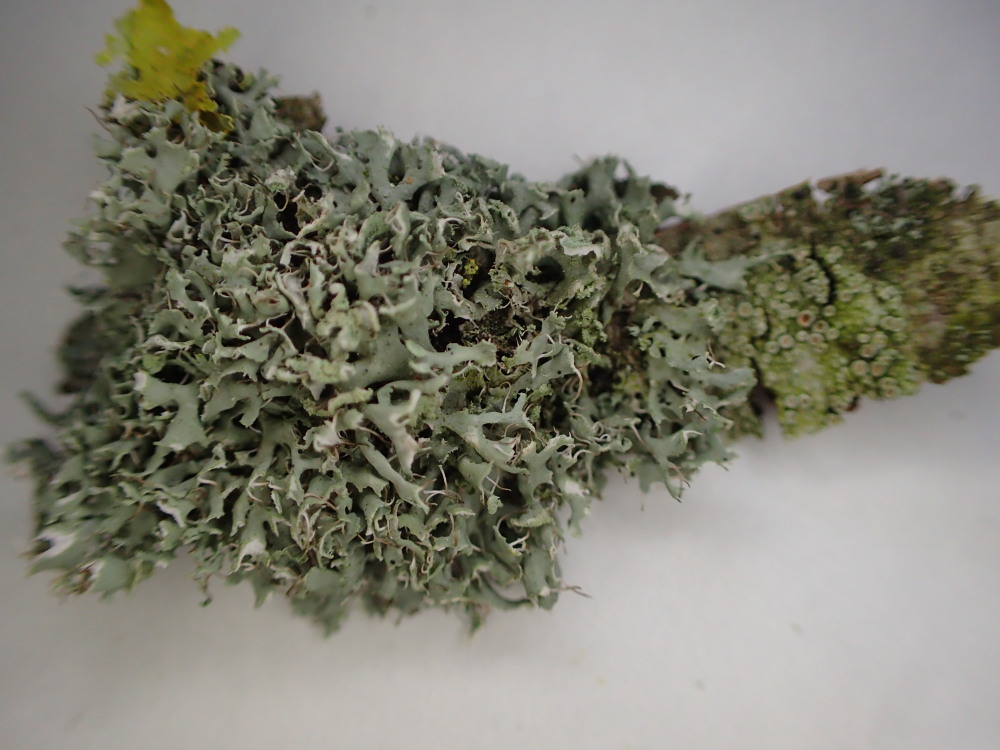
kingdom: Fungi
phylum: Ascomycota
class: Lecanoromycetes
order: Caliciales
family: Physciaceae
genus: Physcia
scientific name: Physcia tenella
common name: spæd rosetlav
